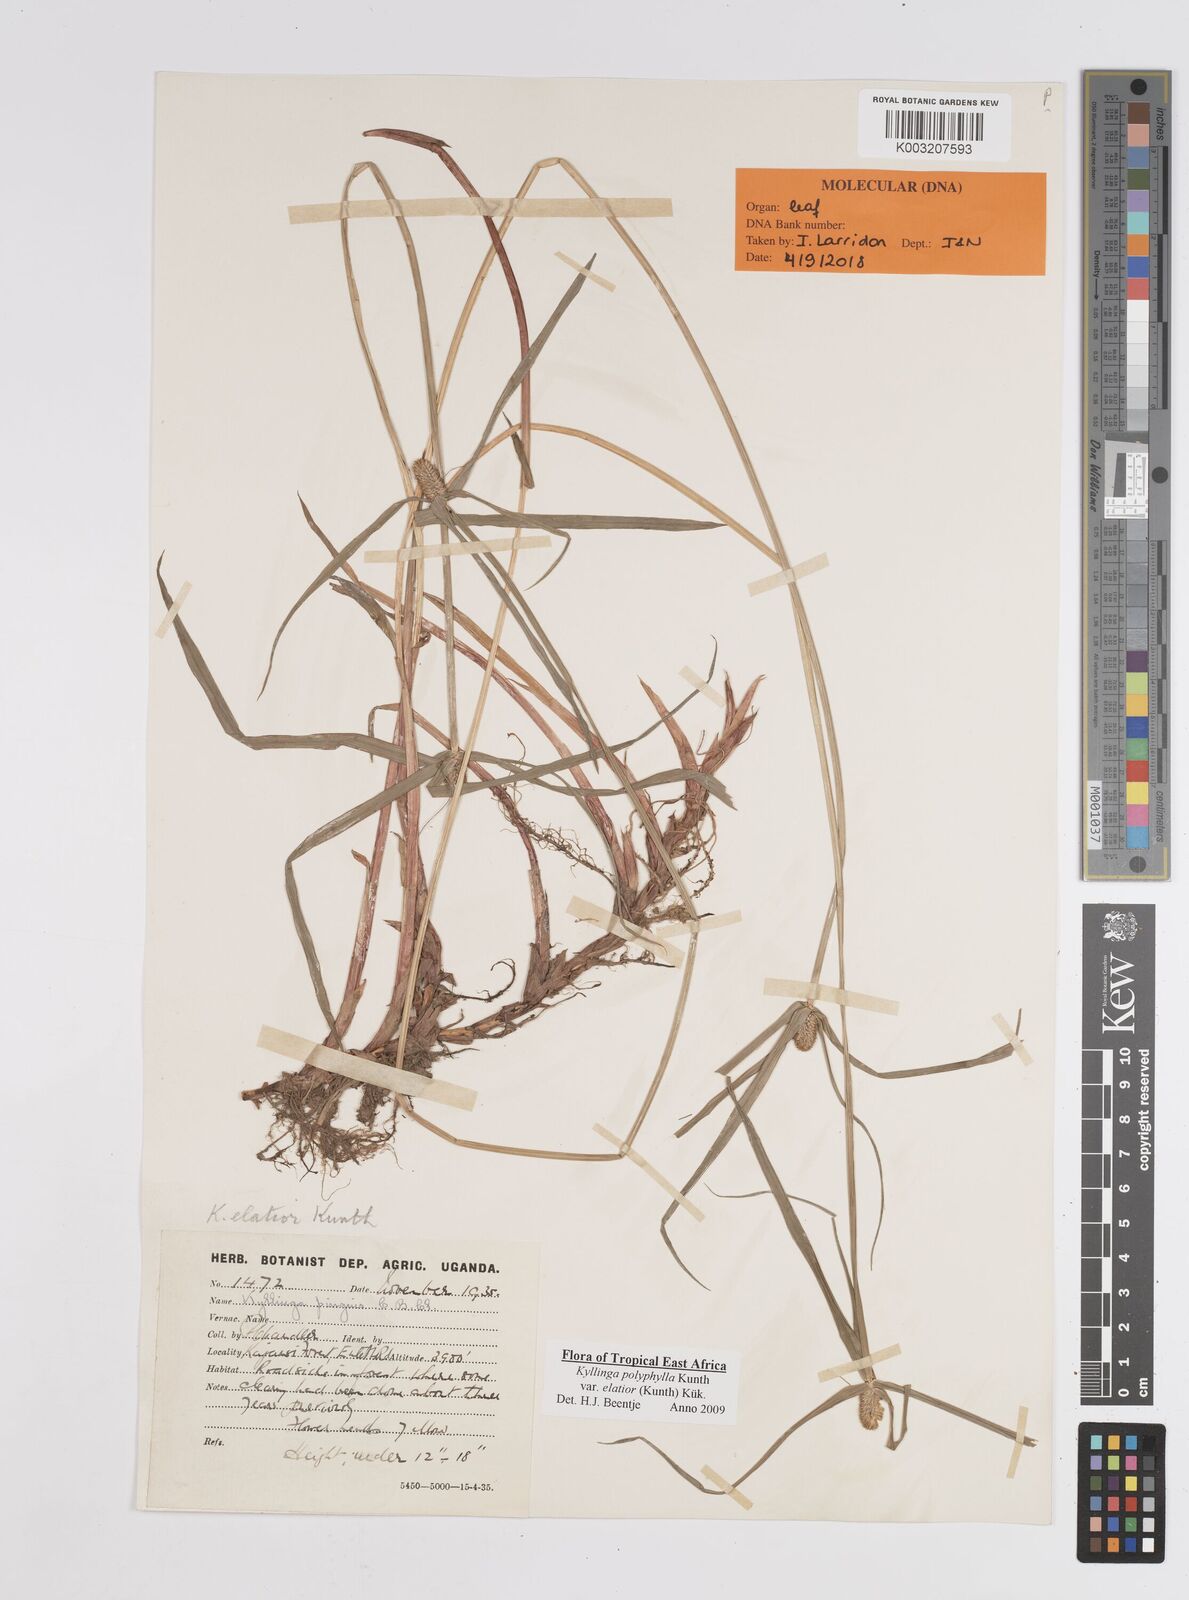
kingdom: Plantae
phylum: Tracheophyta
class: Liliopsida
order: Poales
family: Cyperaceae
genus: Cyperus
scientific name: Cyperus
